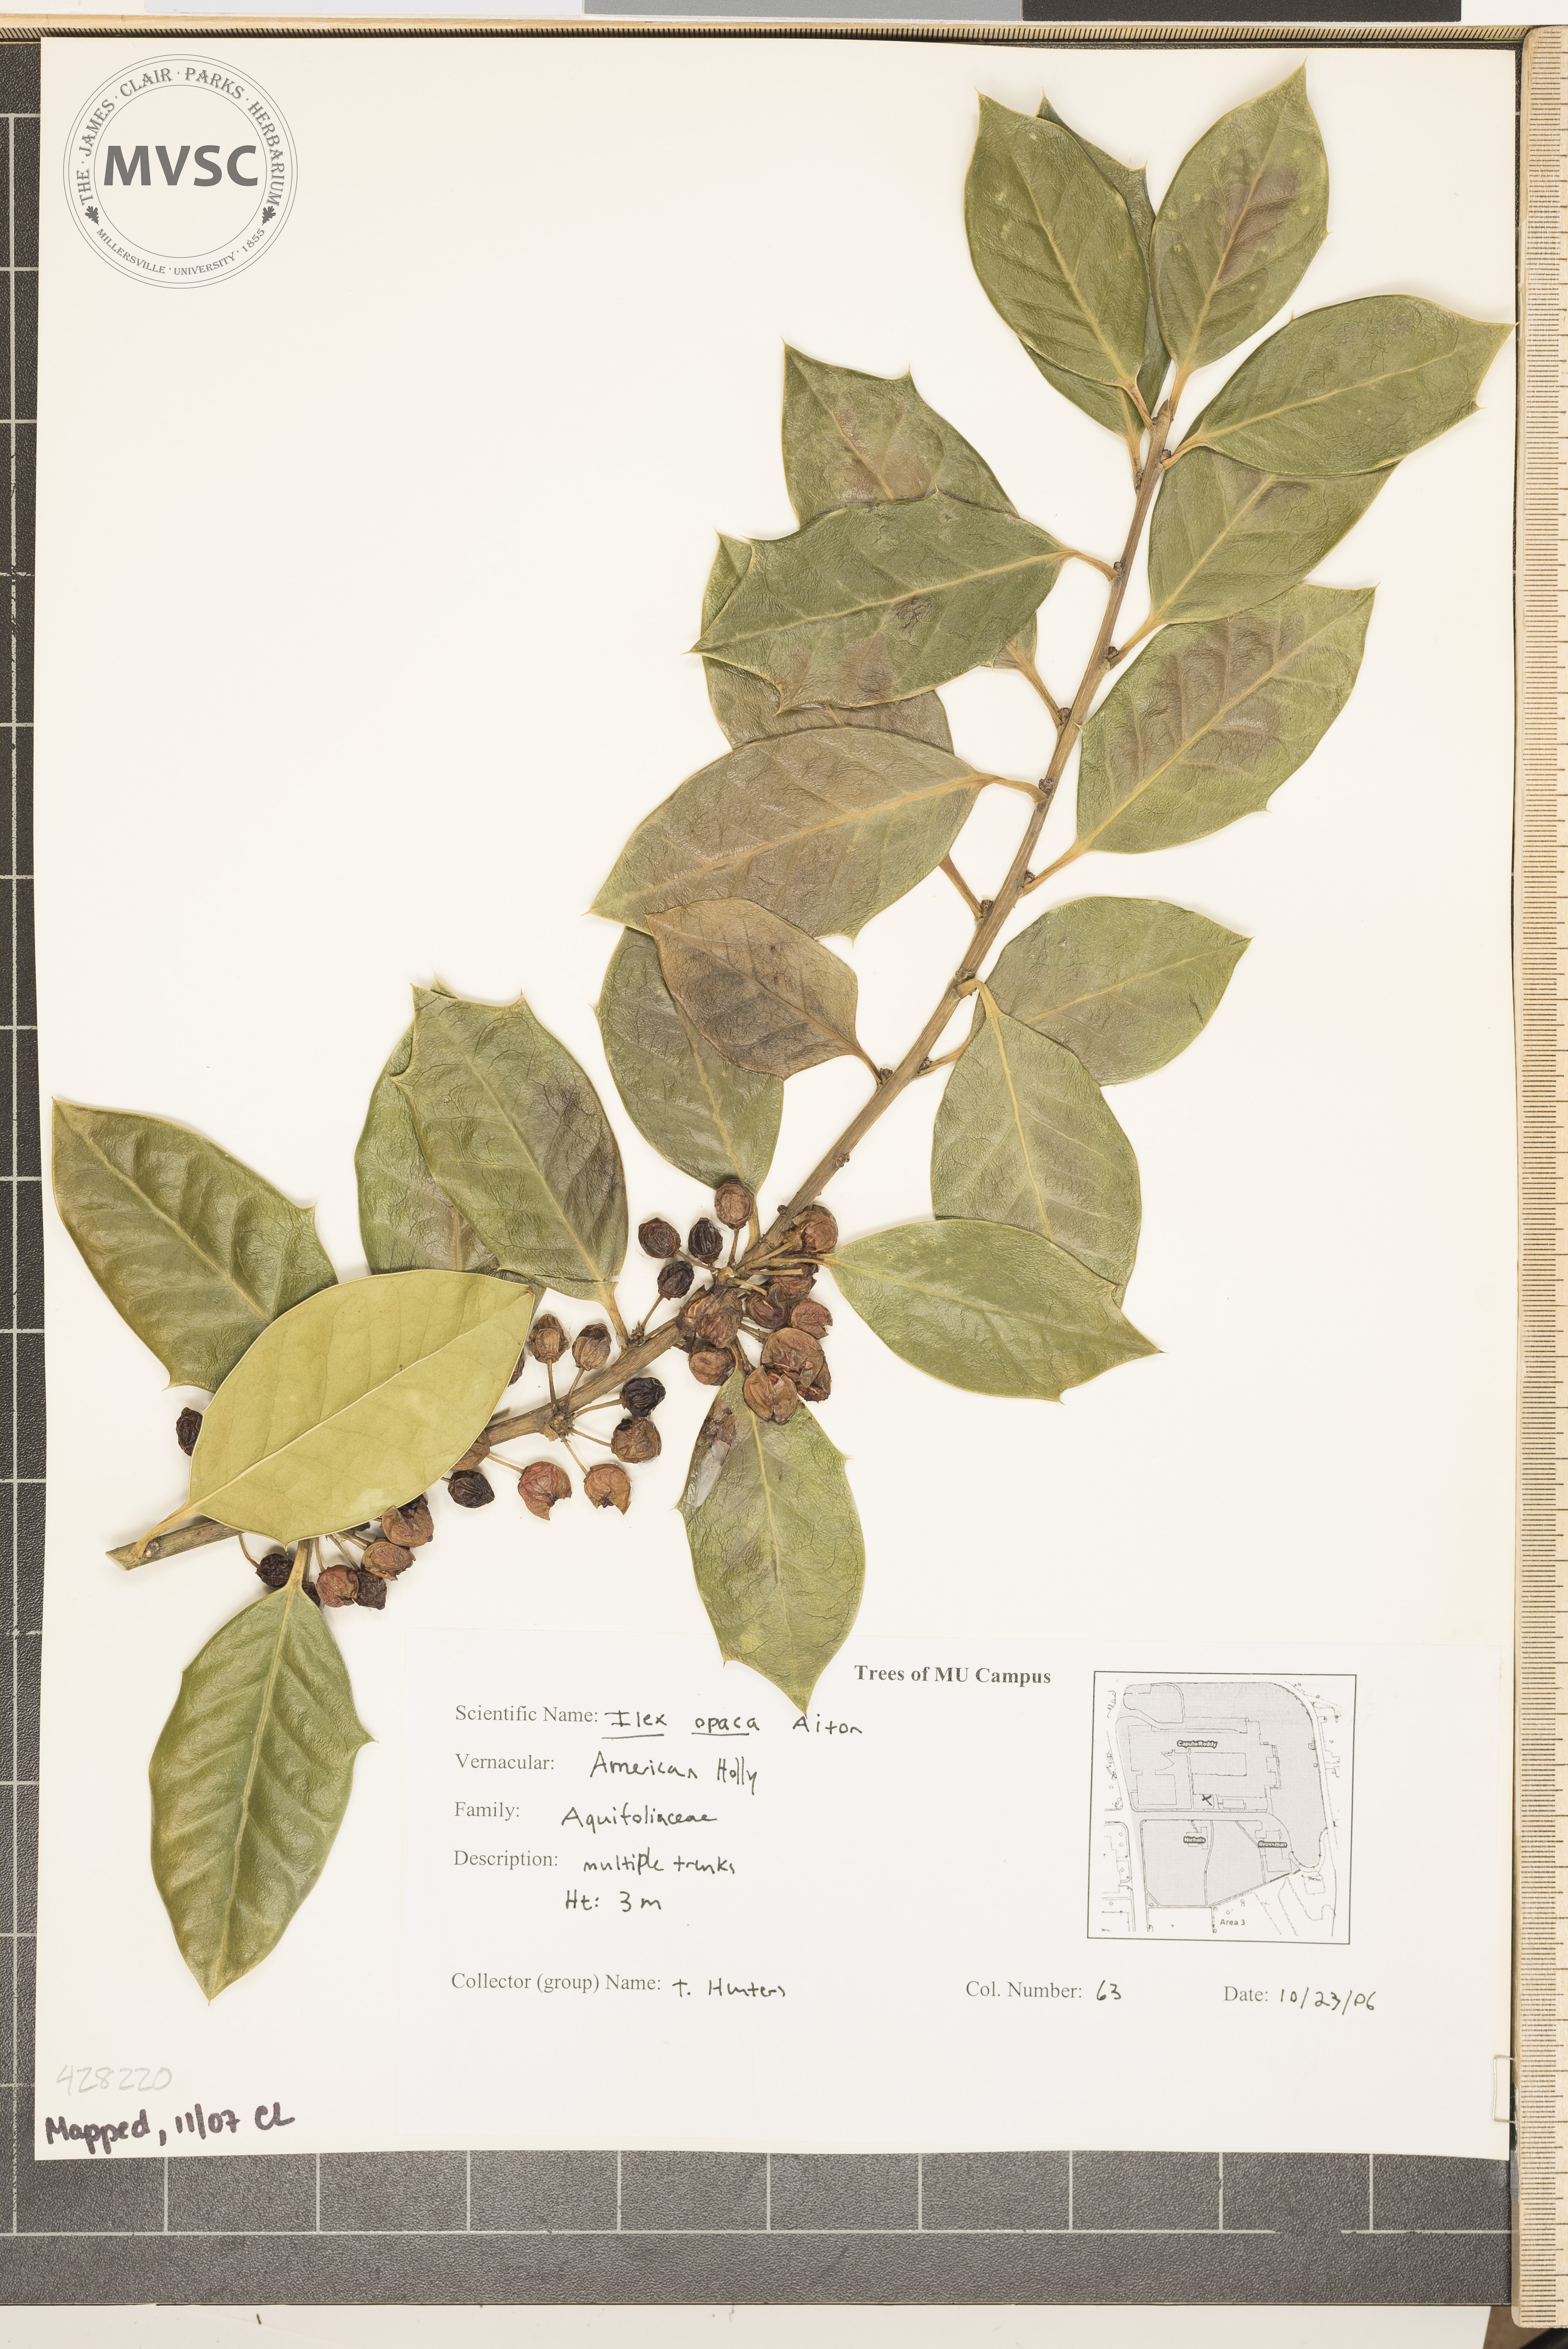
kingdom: Plantae
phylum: Tracheophyta
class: Magnoliopsida
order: Aquifoliales
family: Aquifoliaceae
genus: Ilex
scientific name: Ilex opaca
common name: American Holly
